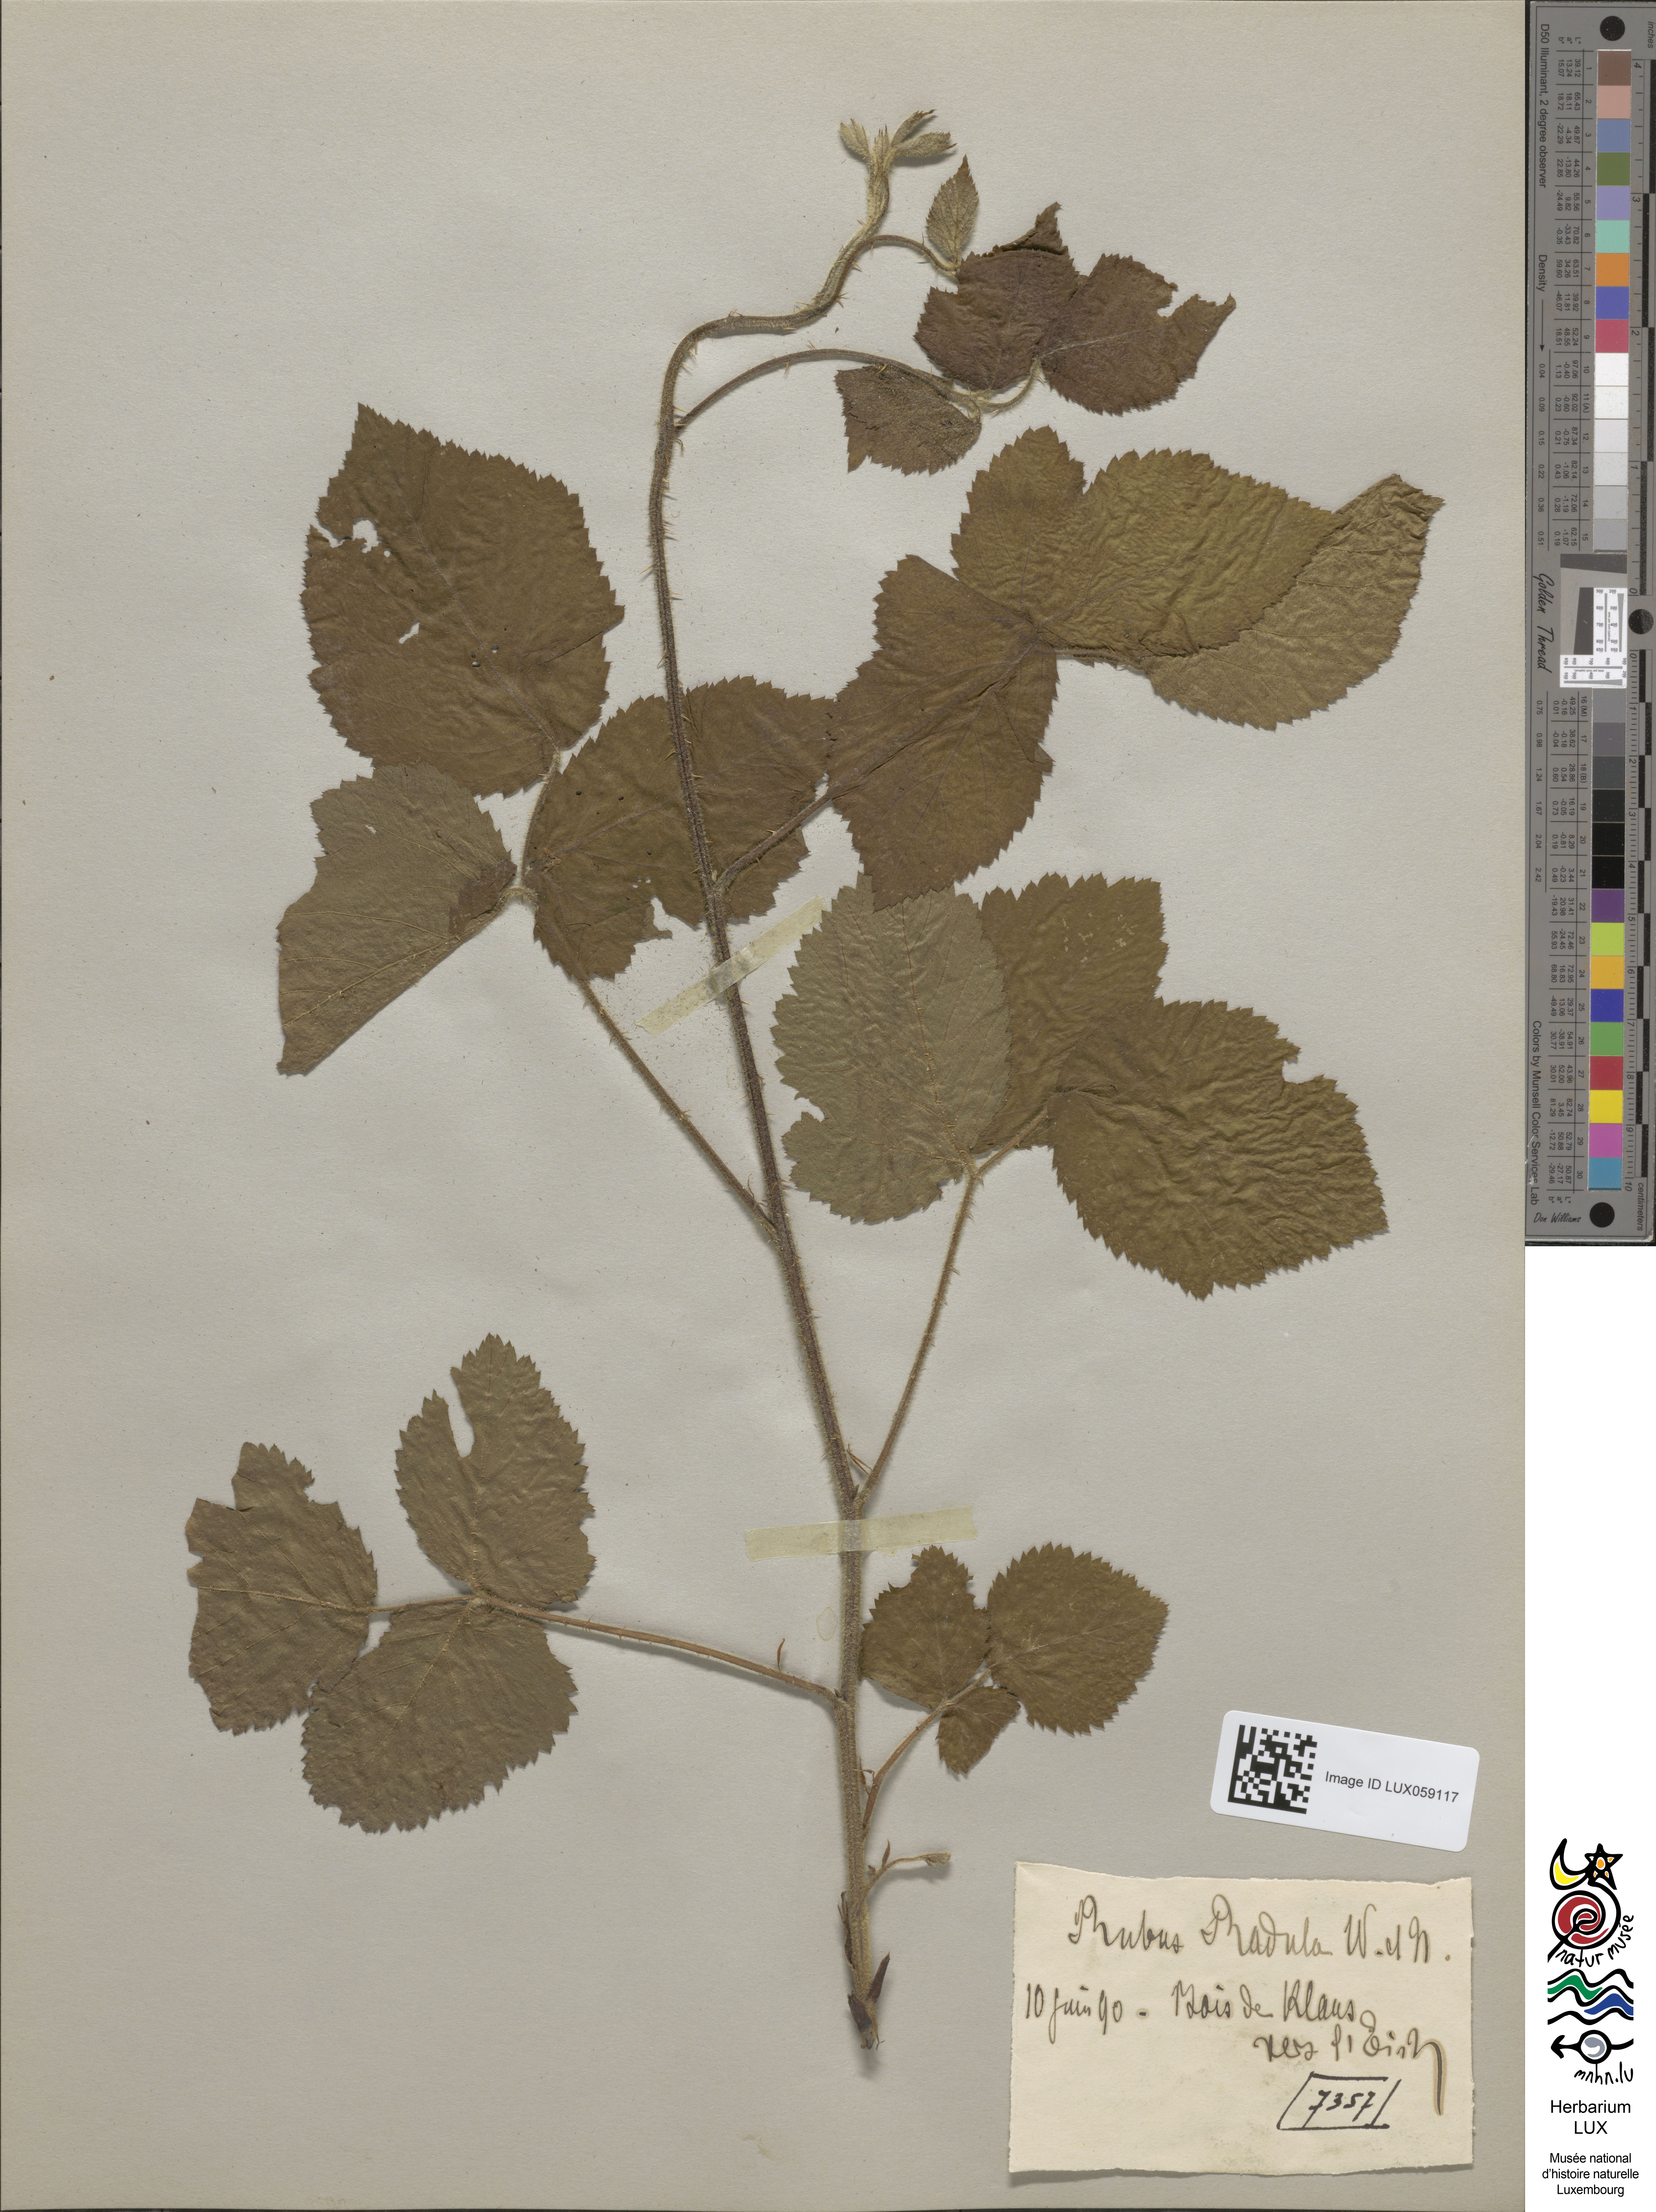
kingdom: Plantae
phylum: Tracheophyta
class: Magnoliopsida
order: Rosales
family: Rosaceae
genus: Rubus
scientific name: Rubus radula
